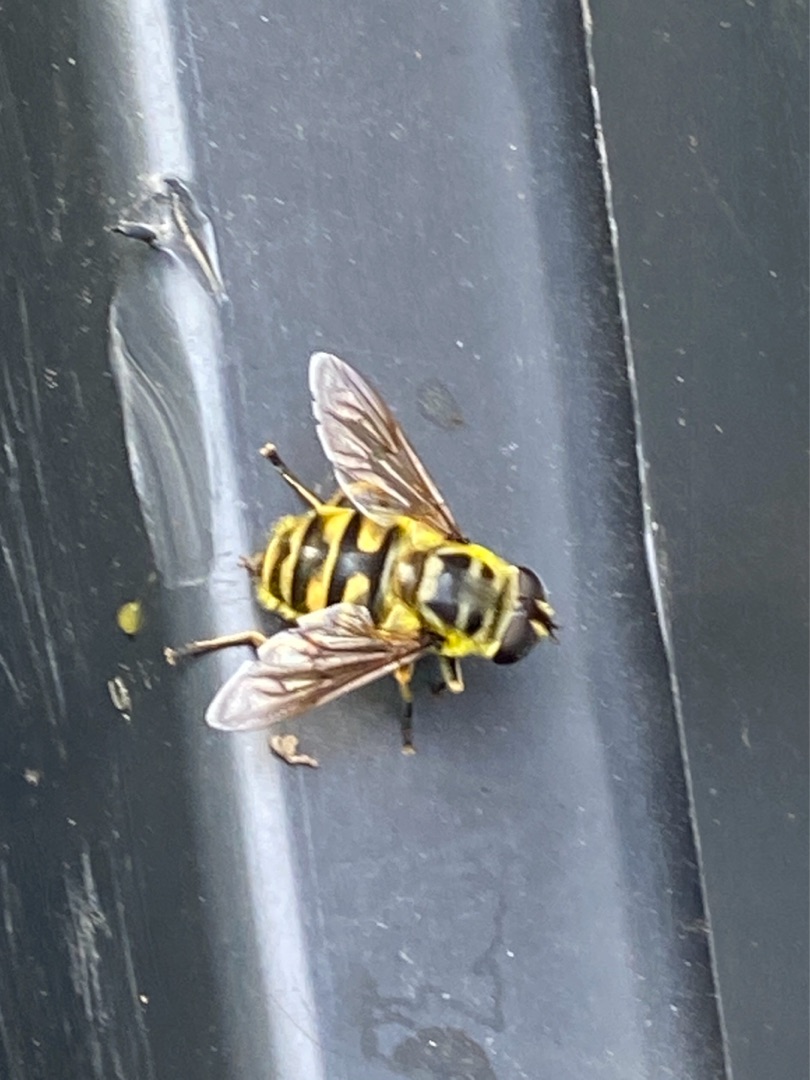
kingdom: Animalia
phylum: Arthropoda
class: Insecta
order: Diptera
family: Syrphidae
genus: Myathropa
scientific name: Myathropa florea
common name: Dødningehoved-svirreflue
